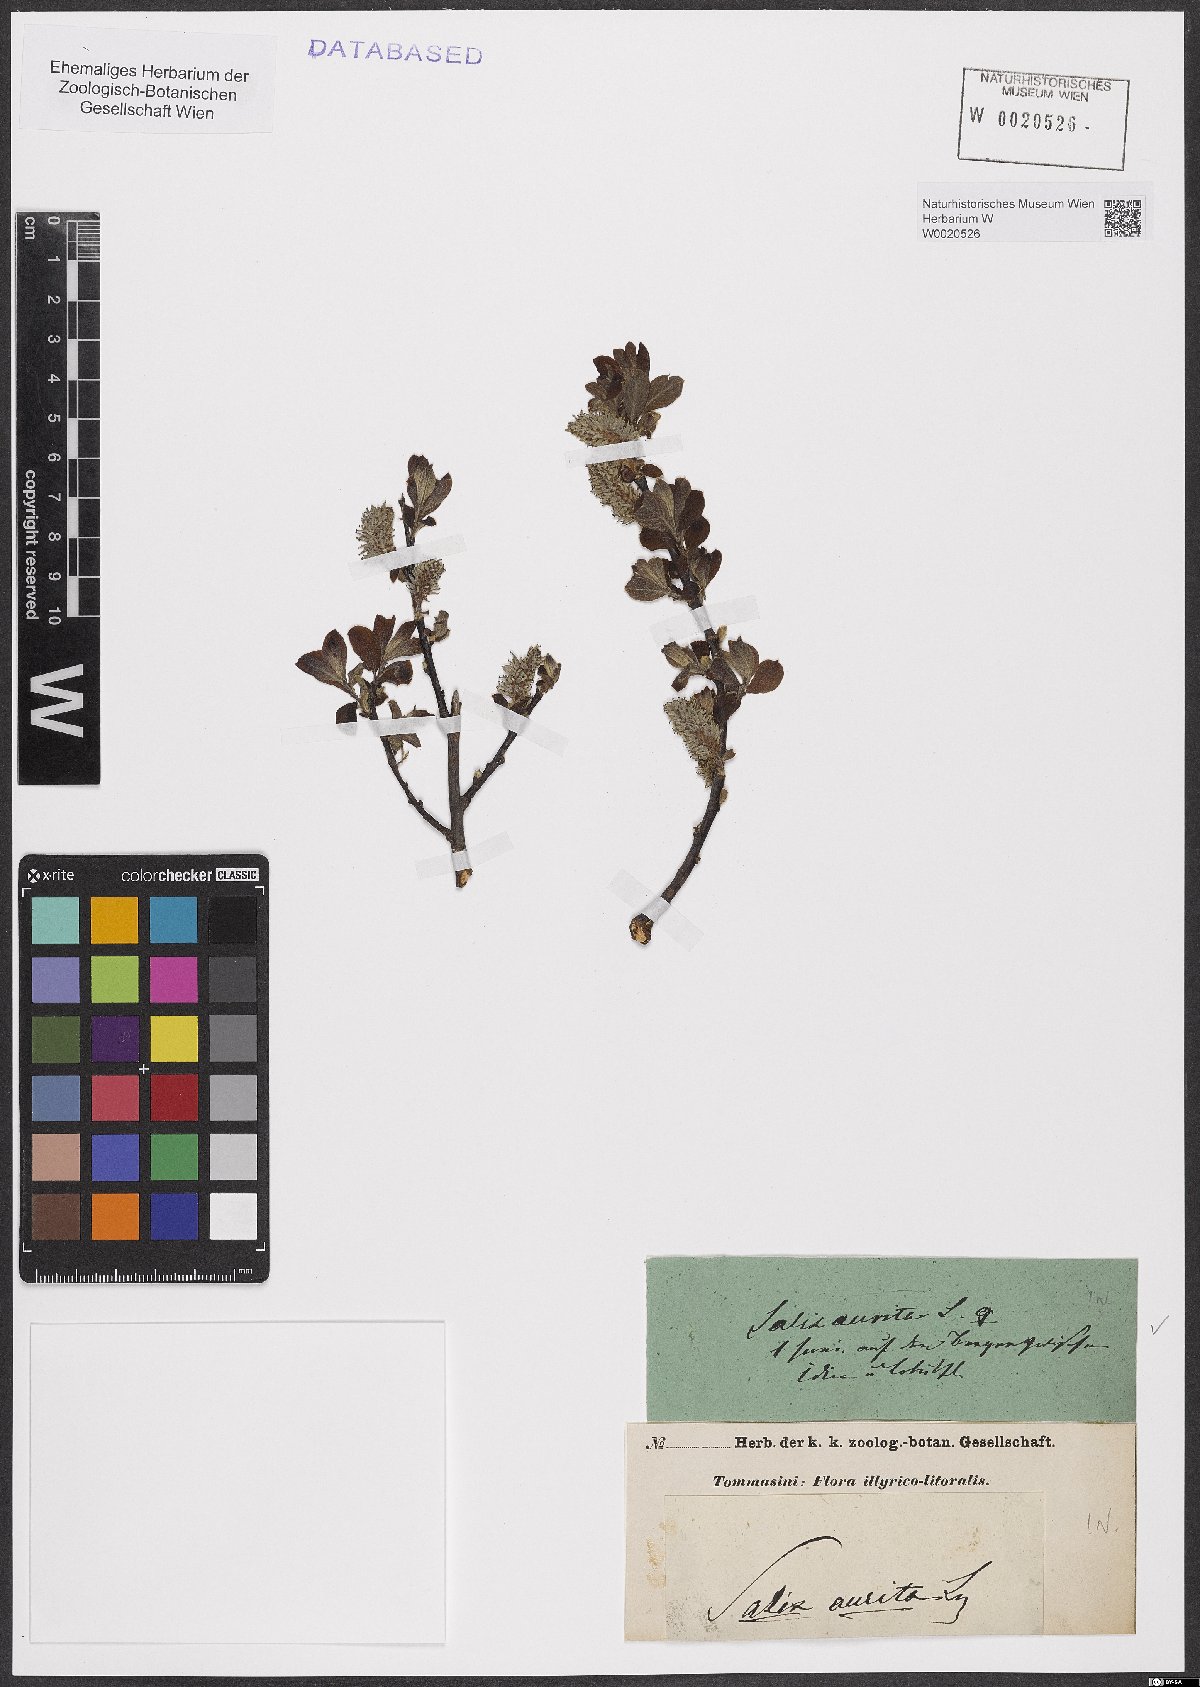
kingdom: Plantae
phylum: Tracheophyta
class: Magnoliopsida
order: Malpighiales
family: Salicaceae
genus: Salix
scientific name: Salix aurita
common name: Eared willow
